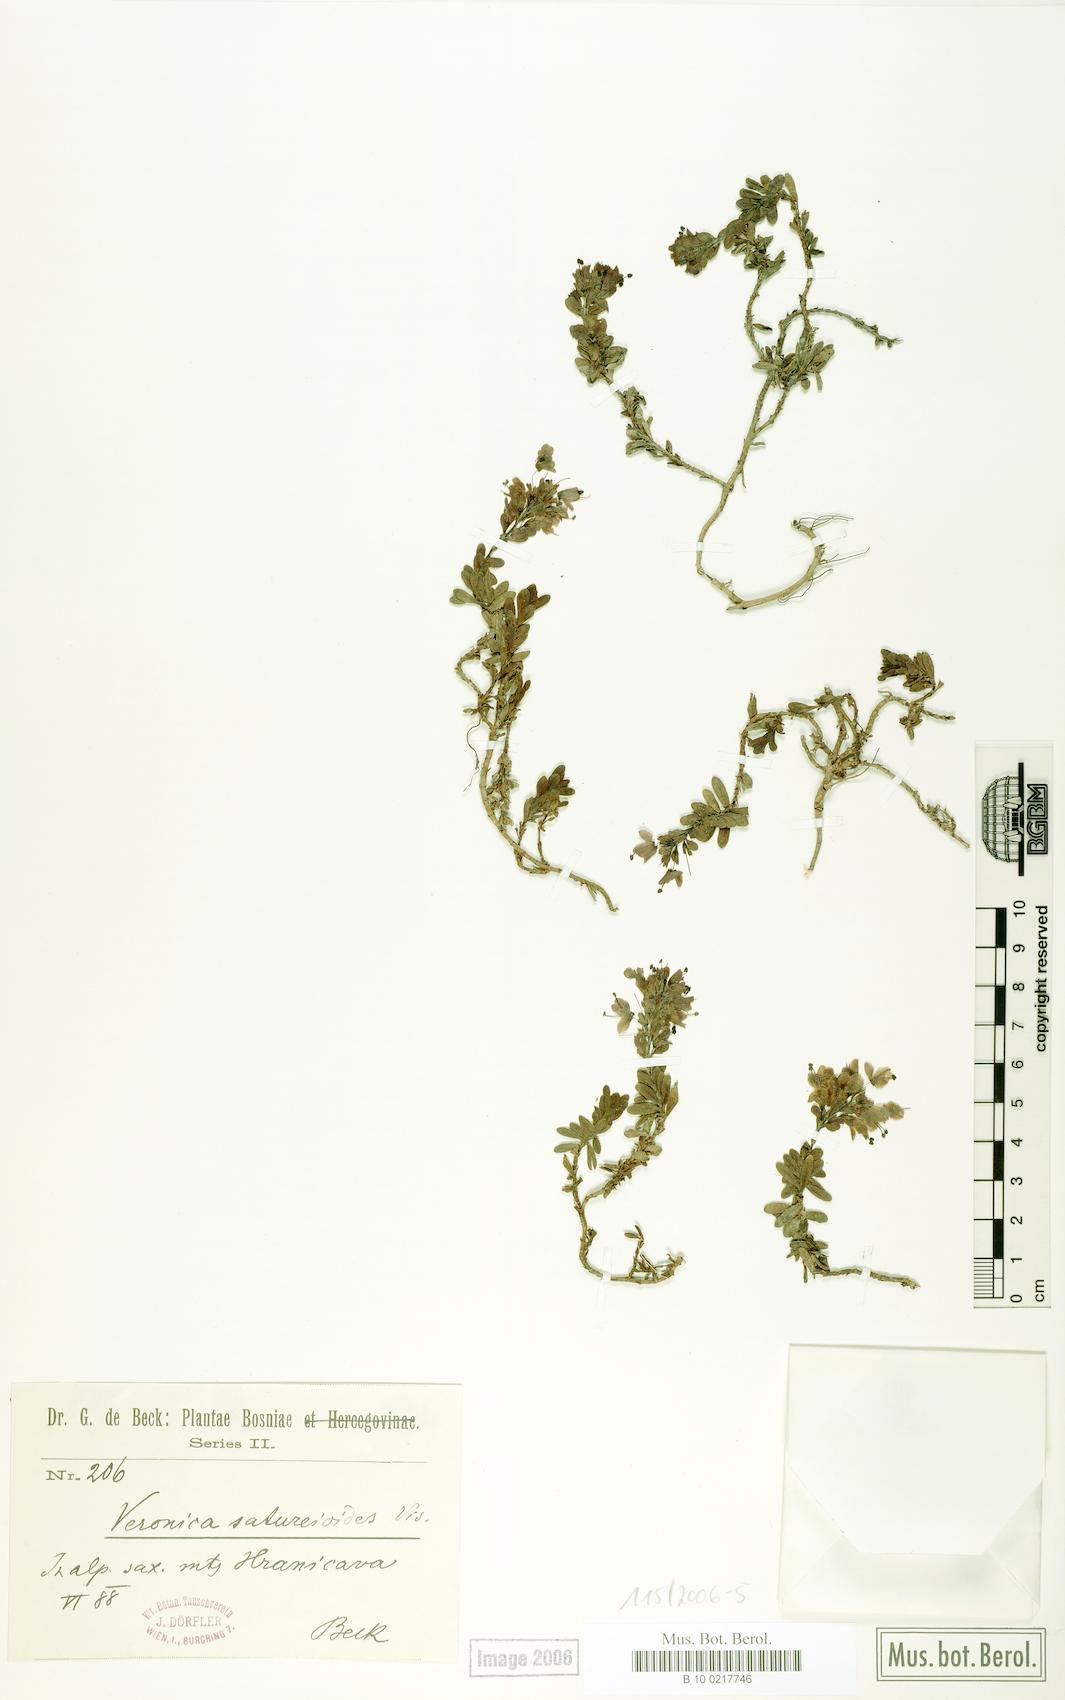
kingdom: Plantae
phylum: Tracheophyta
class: Magnoliopsida
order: Lamiales
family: Plantaginaceae
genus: Veronica
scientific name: Veronica saturejoides
